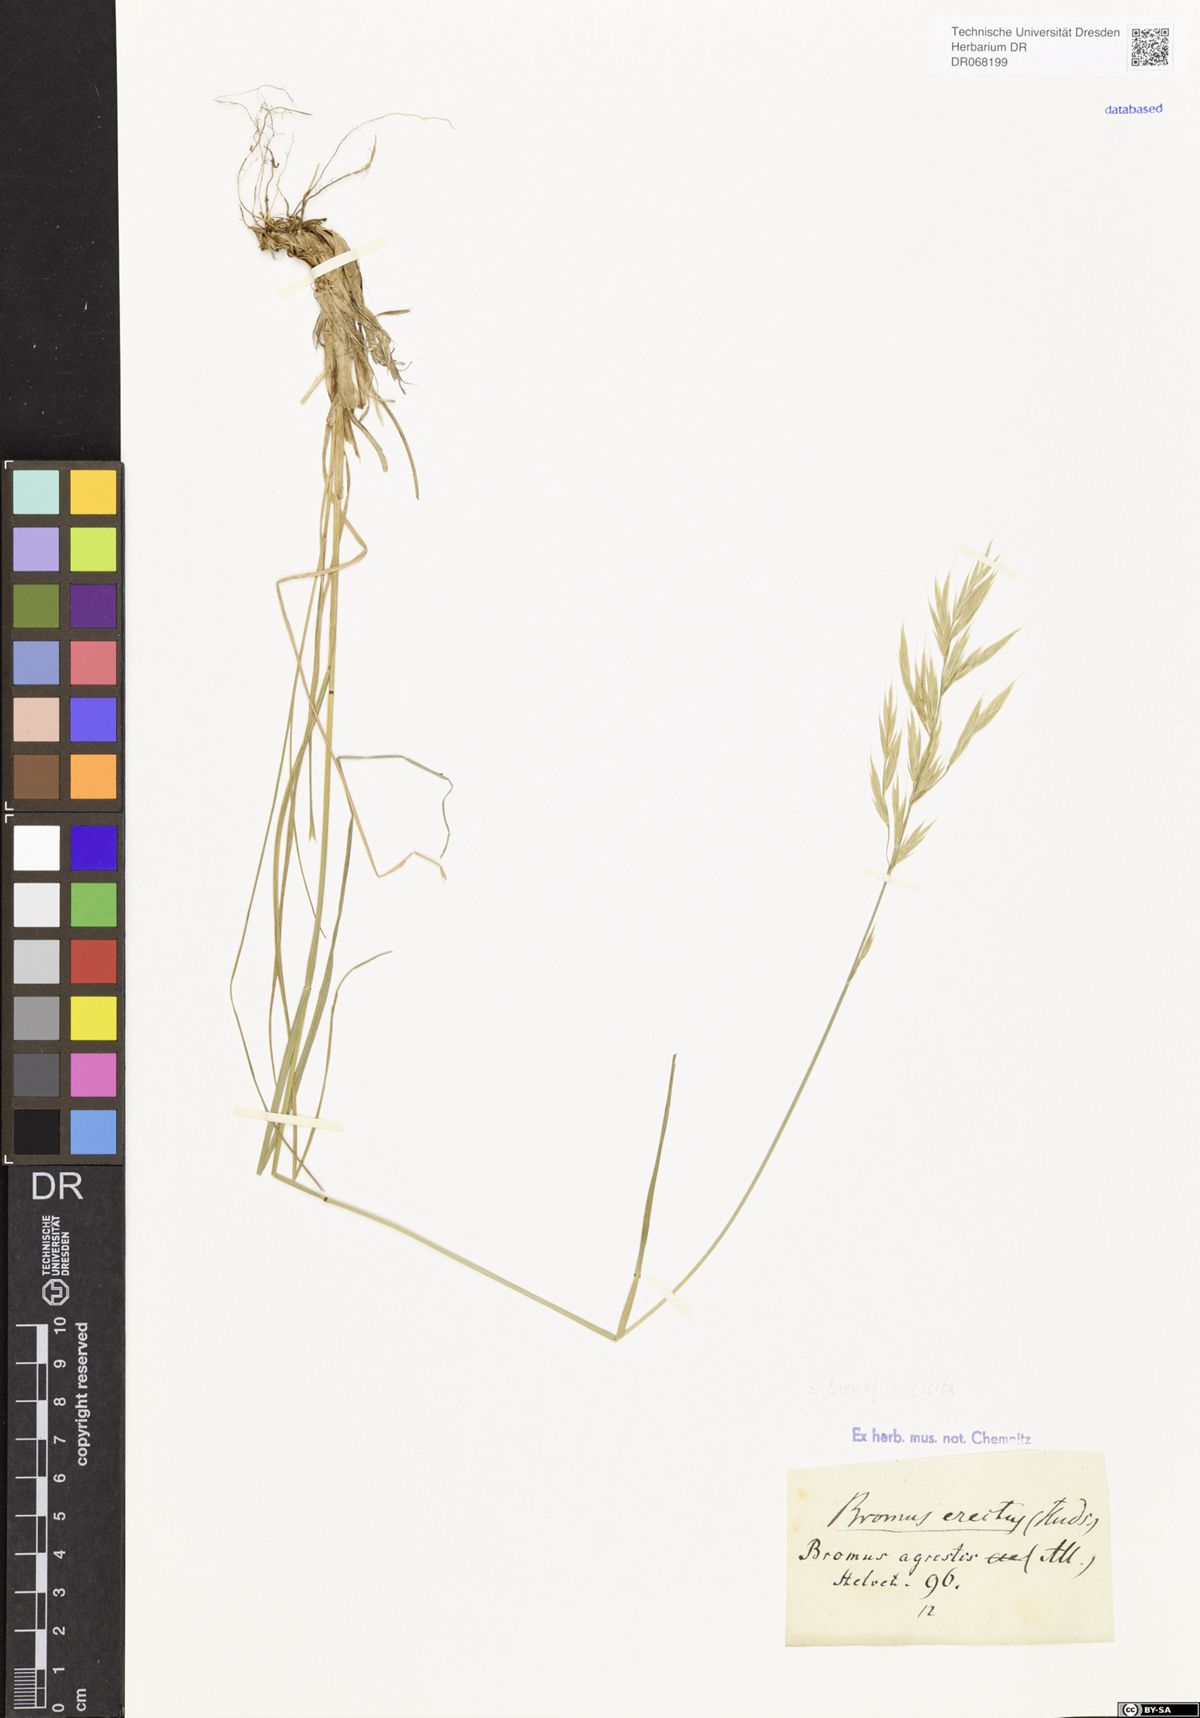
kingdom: Plantae
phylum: Tracheophyta
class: Liliopsida
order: Poales
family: Poaceae
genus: Bromus
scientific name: Bromus erectus
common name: Erect brome
